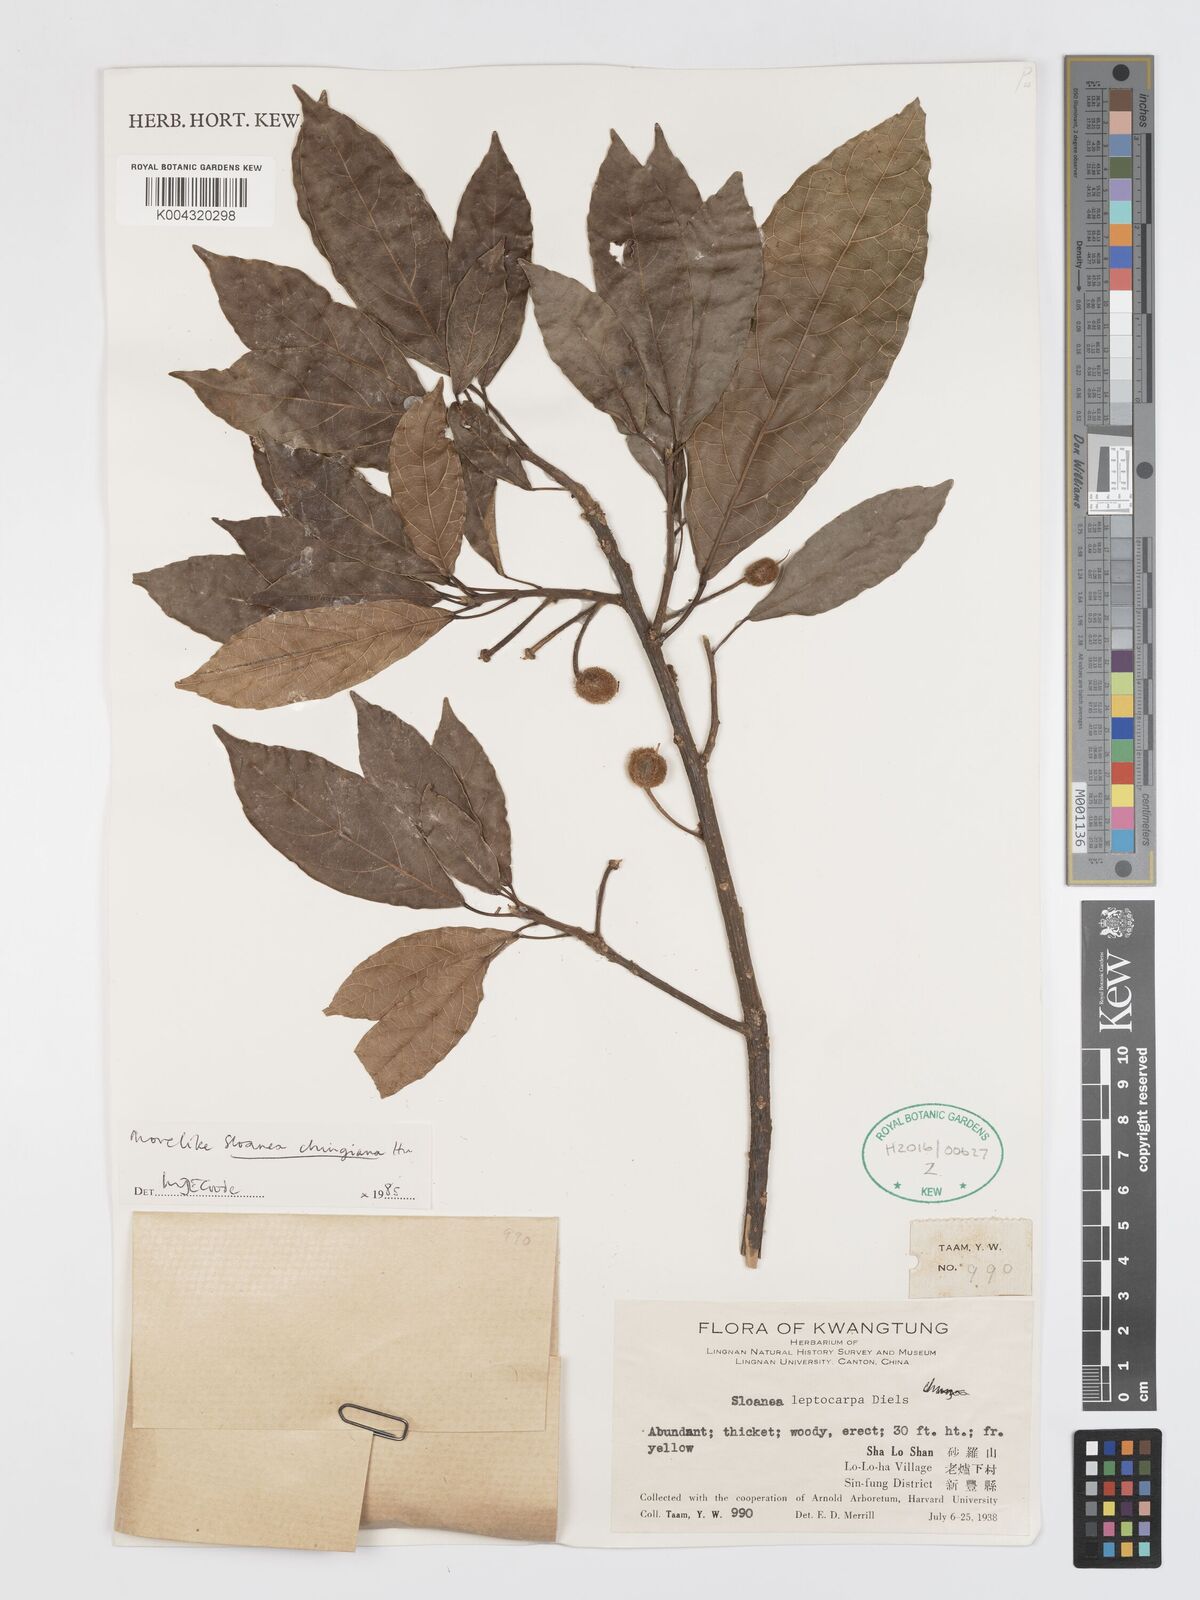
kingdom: Plantae
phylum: Tracheophyta
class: Magnoliopsida
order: Oxalidales
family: Elaeocarpaceae
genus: Sloanea
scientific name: Sloanea chingiana
